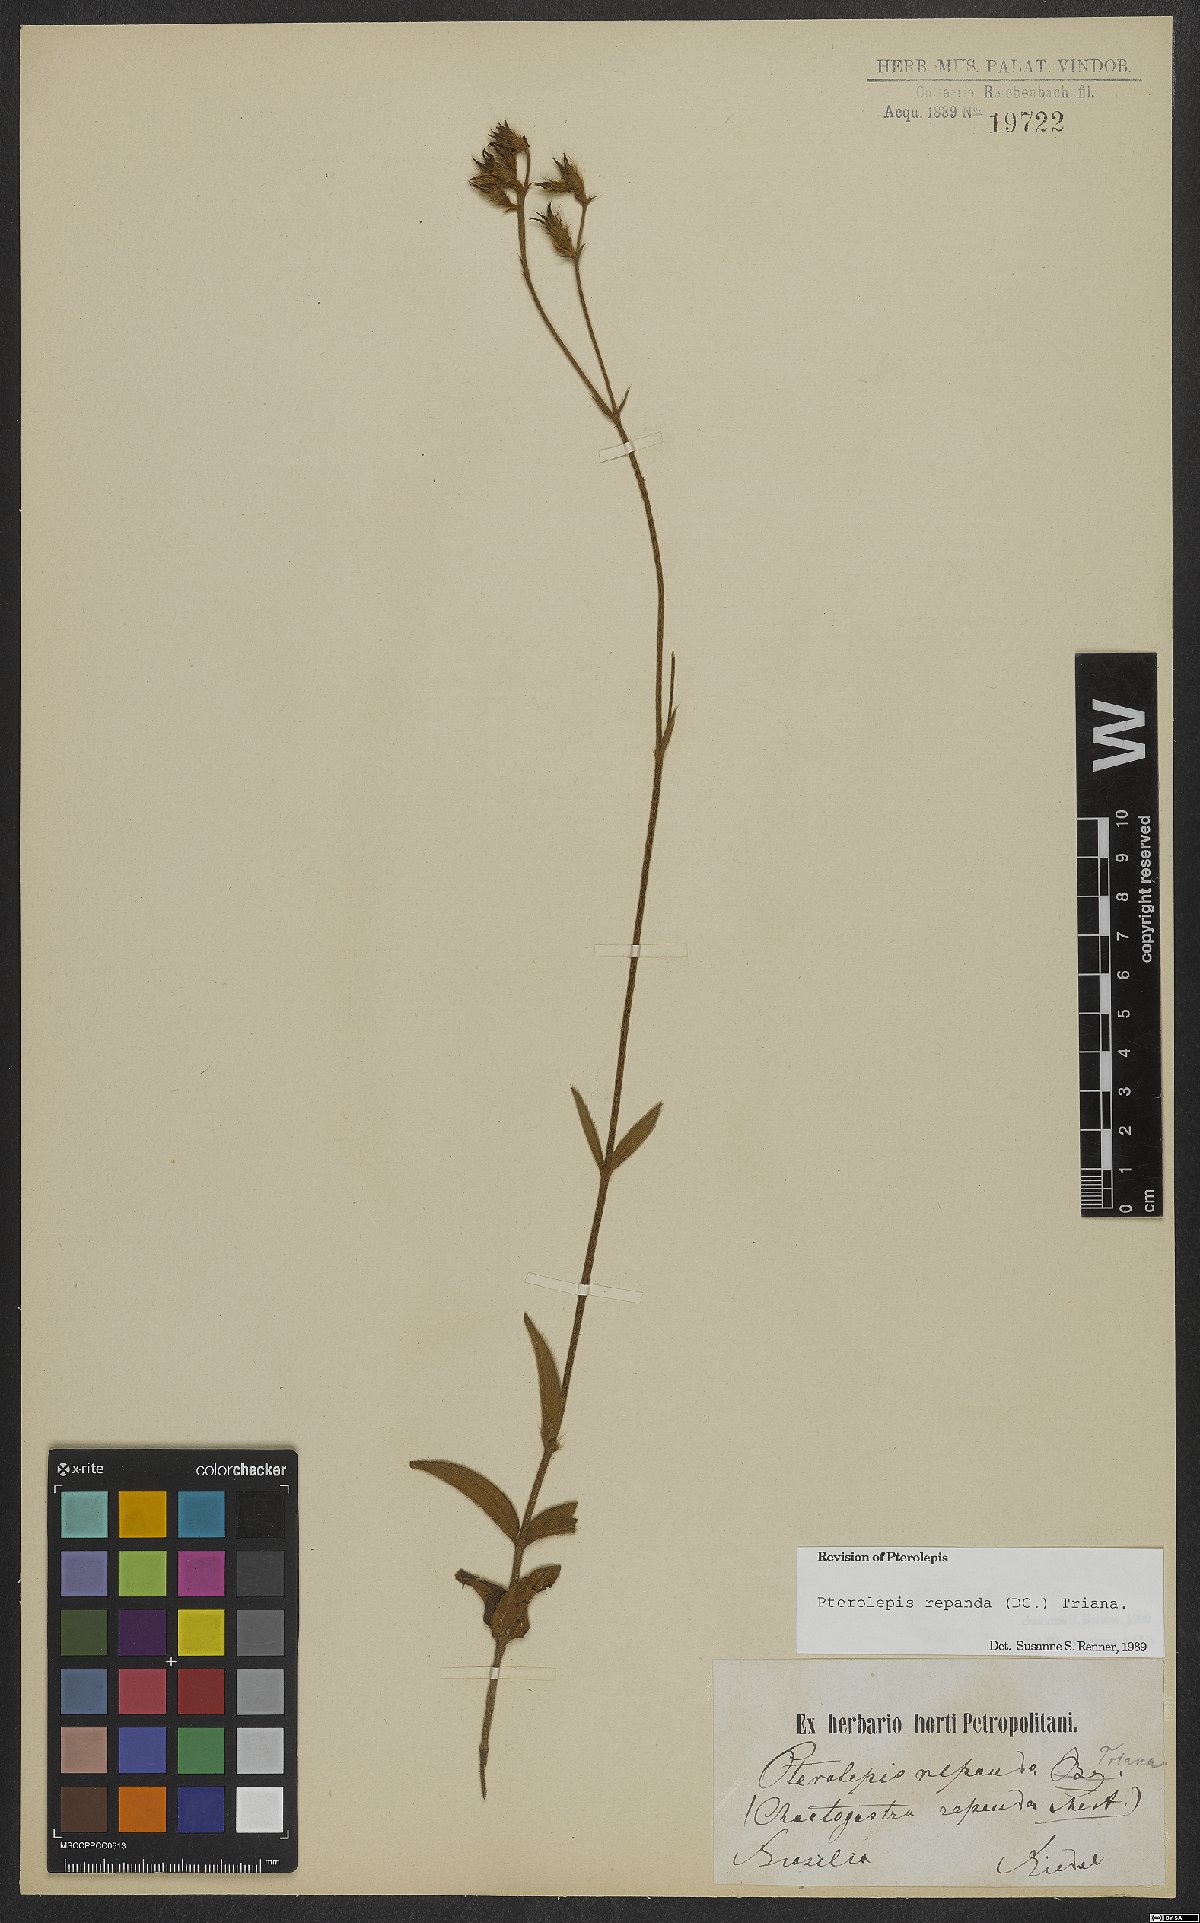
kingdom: Plantae
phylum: Tracheophyta
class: Magnoliopsida
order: Myrtales
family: Melastomataceae
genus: Pterolepis
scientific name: Pterolepis repanda
